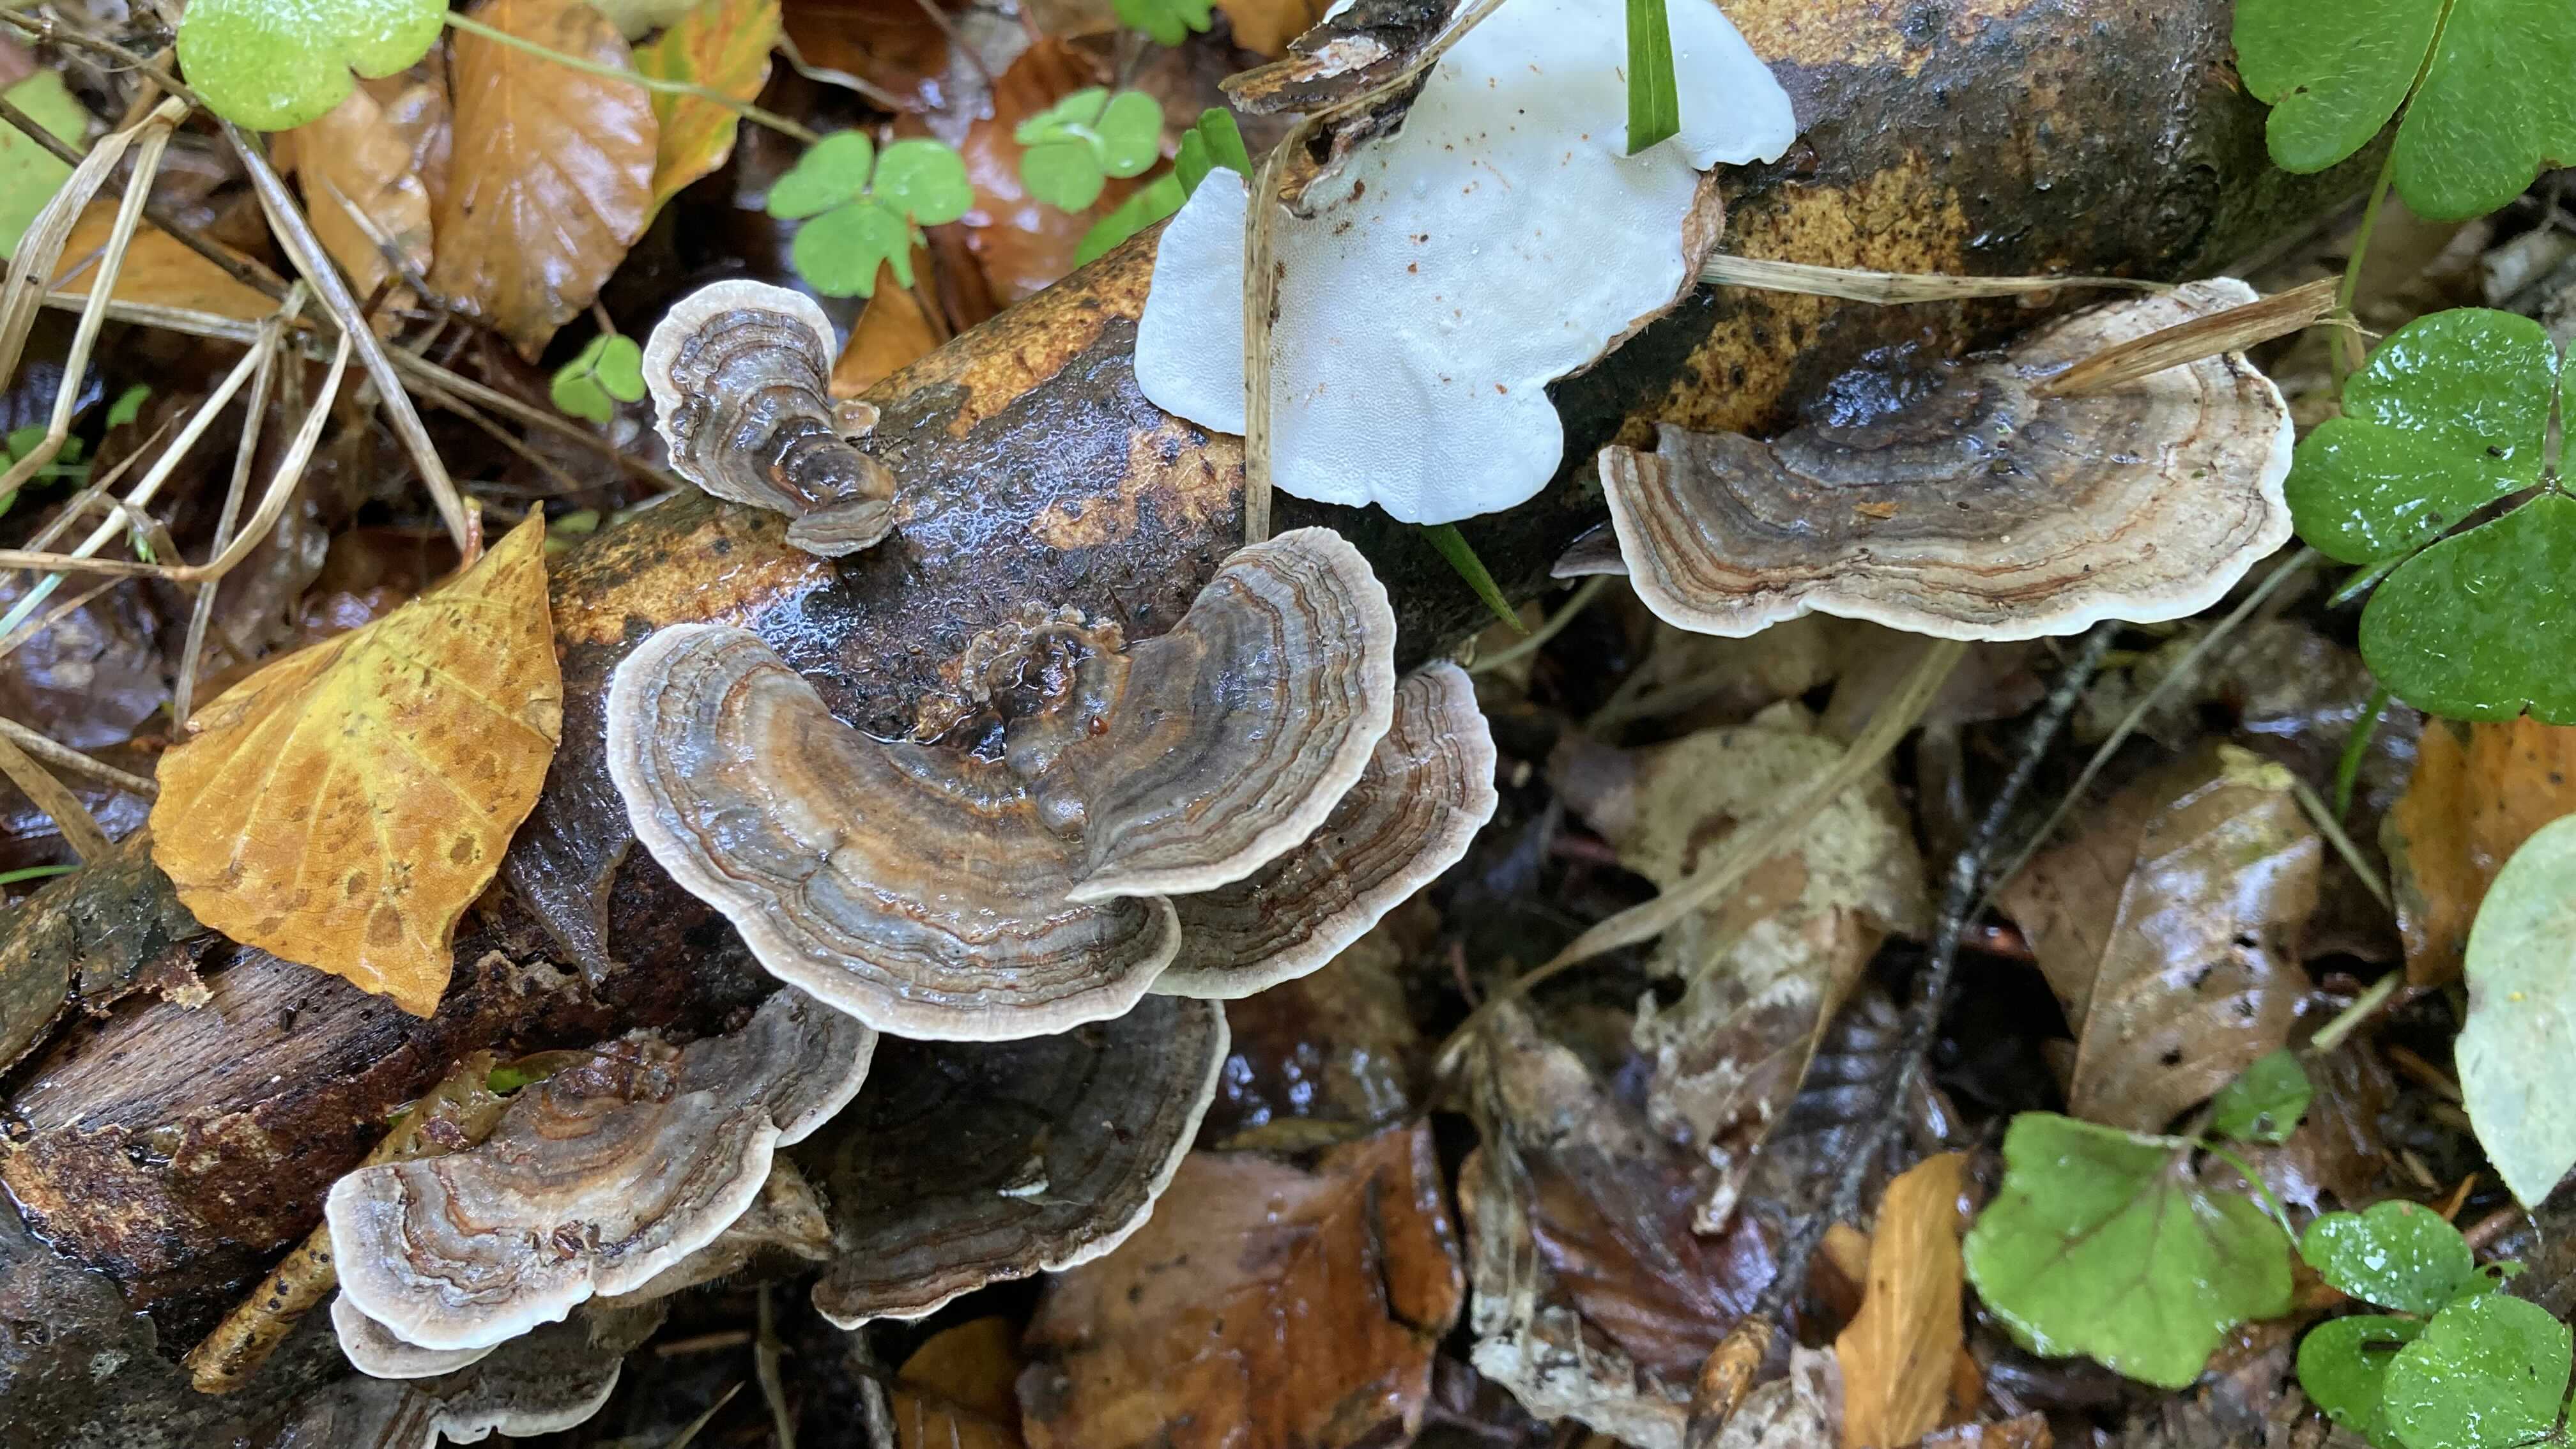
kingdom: Fungi
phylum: Basidiomycota
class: Agaricomycetes
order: Polyporales
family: Polyporaceae
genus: Trametes
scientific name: Trametes versicolor
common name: broget læderporesvamp
